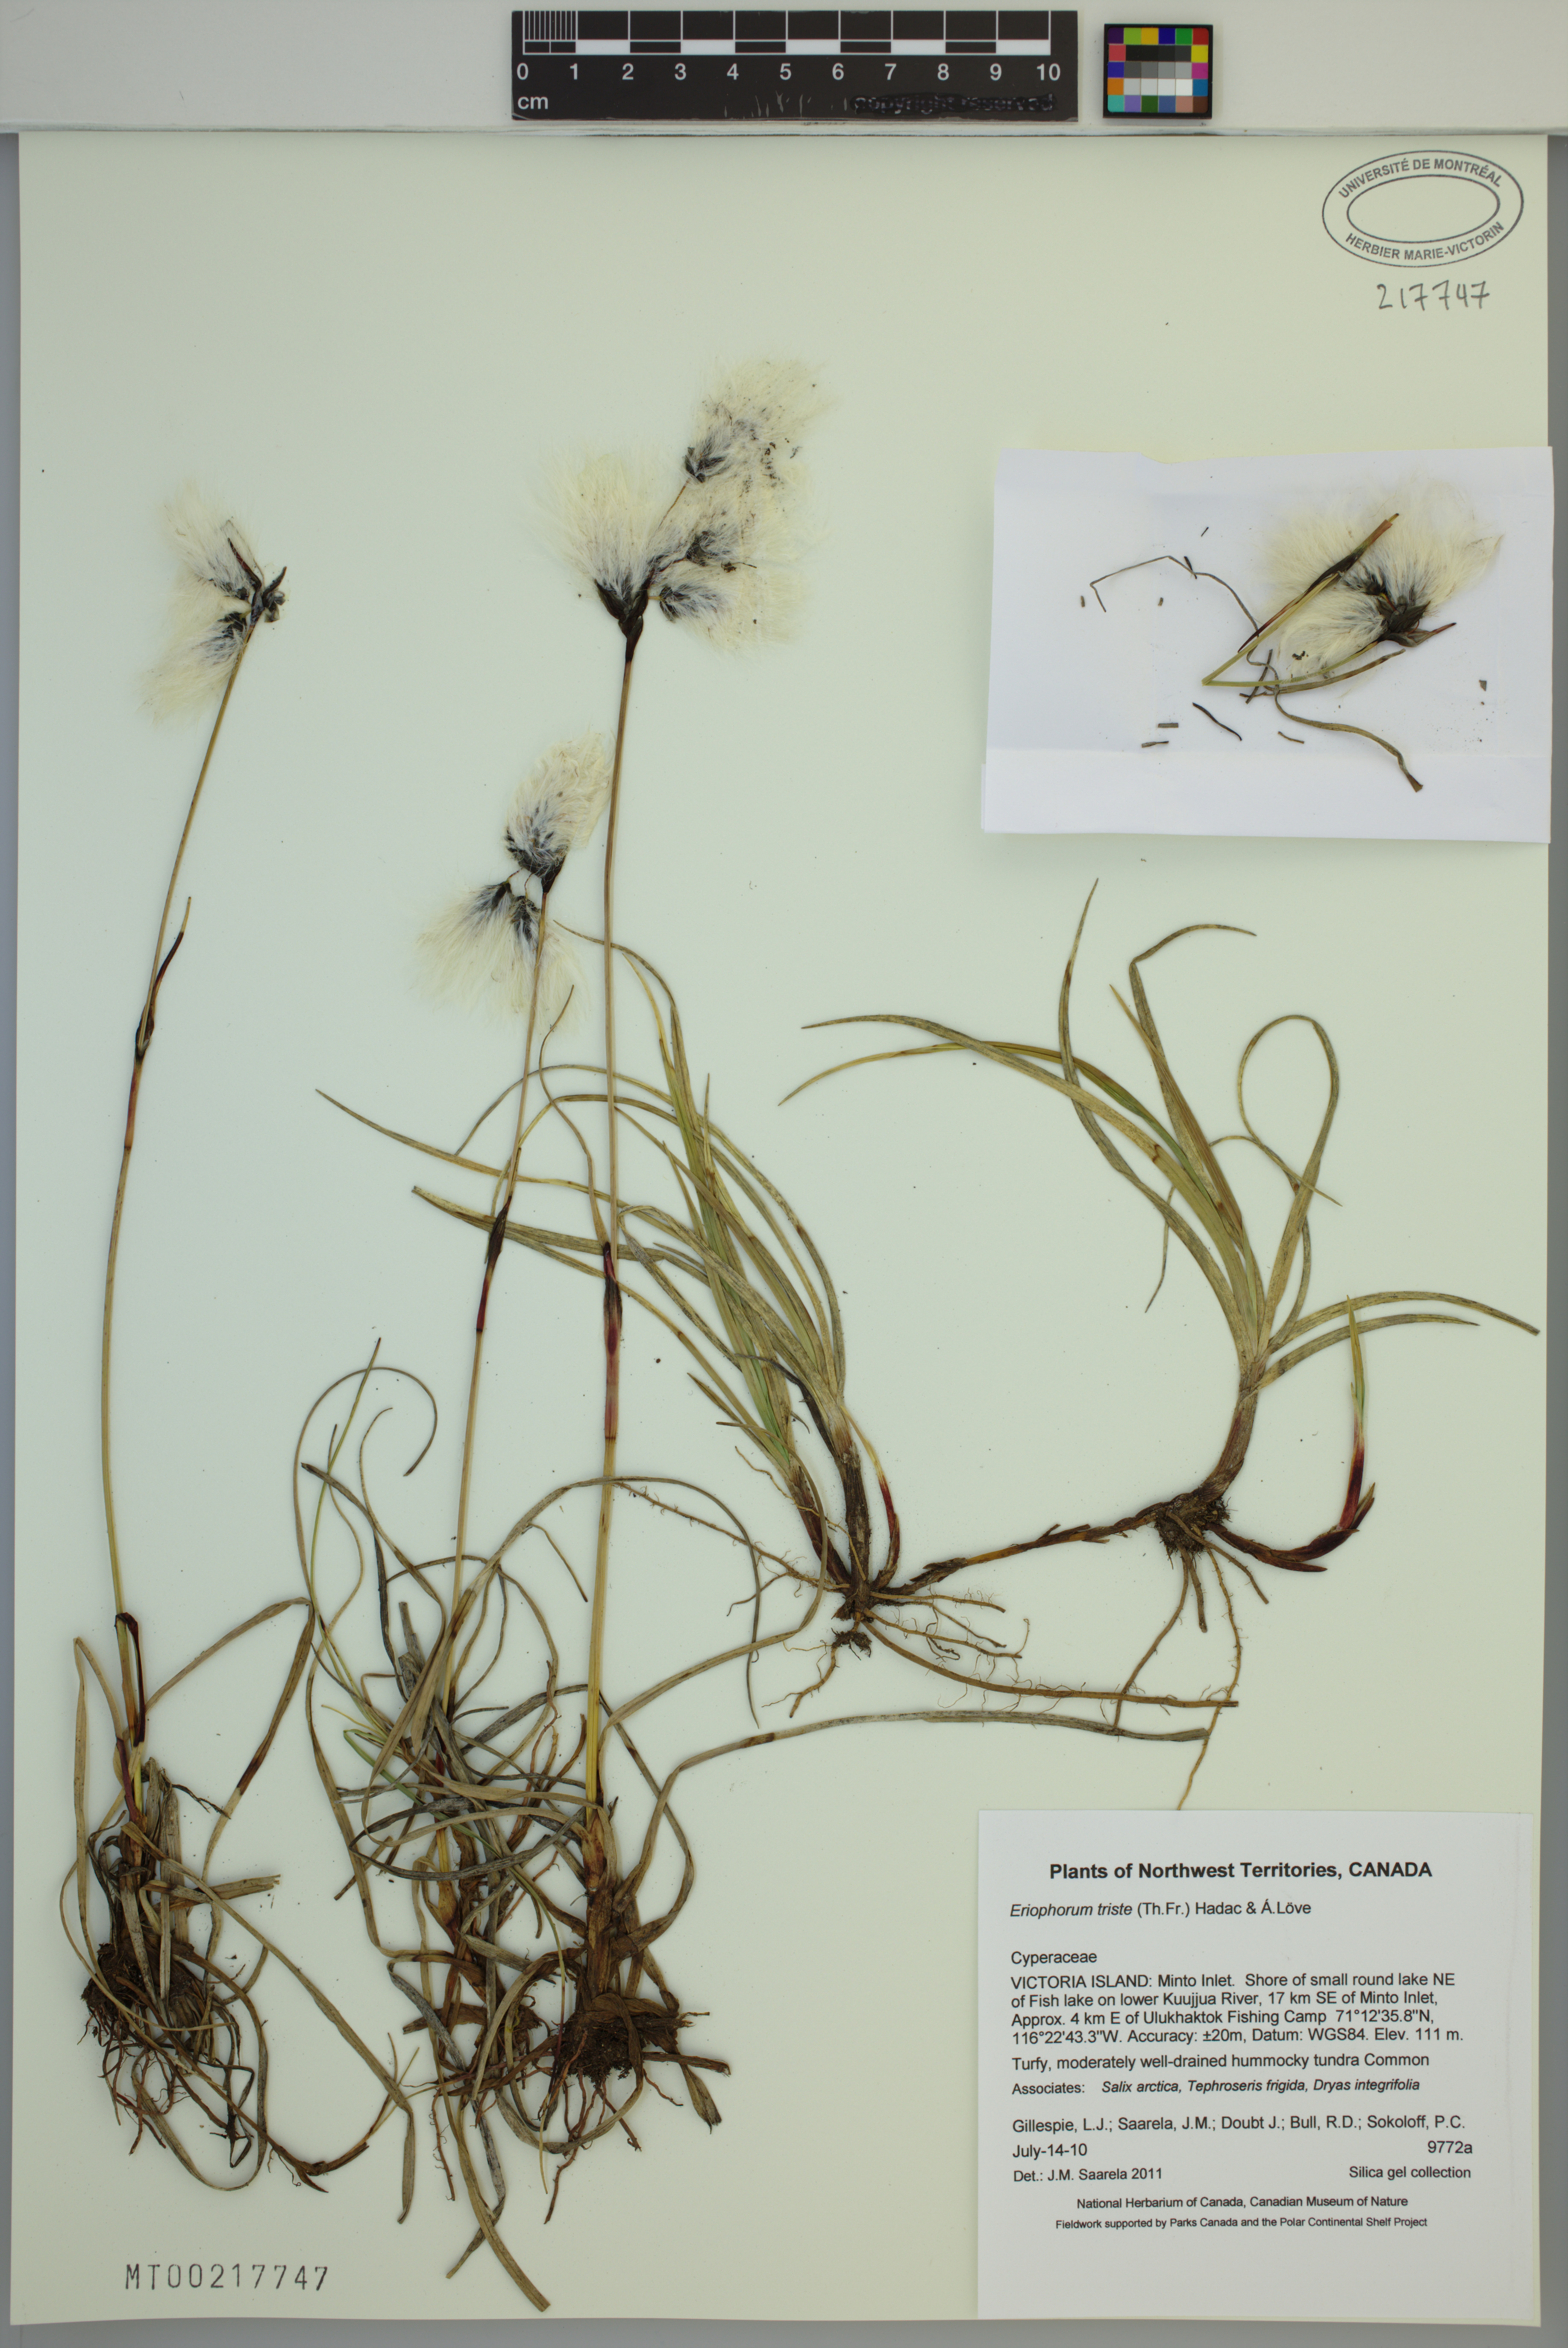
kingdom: Plantae
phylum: Tracheophyta
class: Liliopsida
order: Poales
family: Cyperaceae
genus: Eriophorum
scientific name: Eriophorum triste
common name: Tall cottongrass
